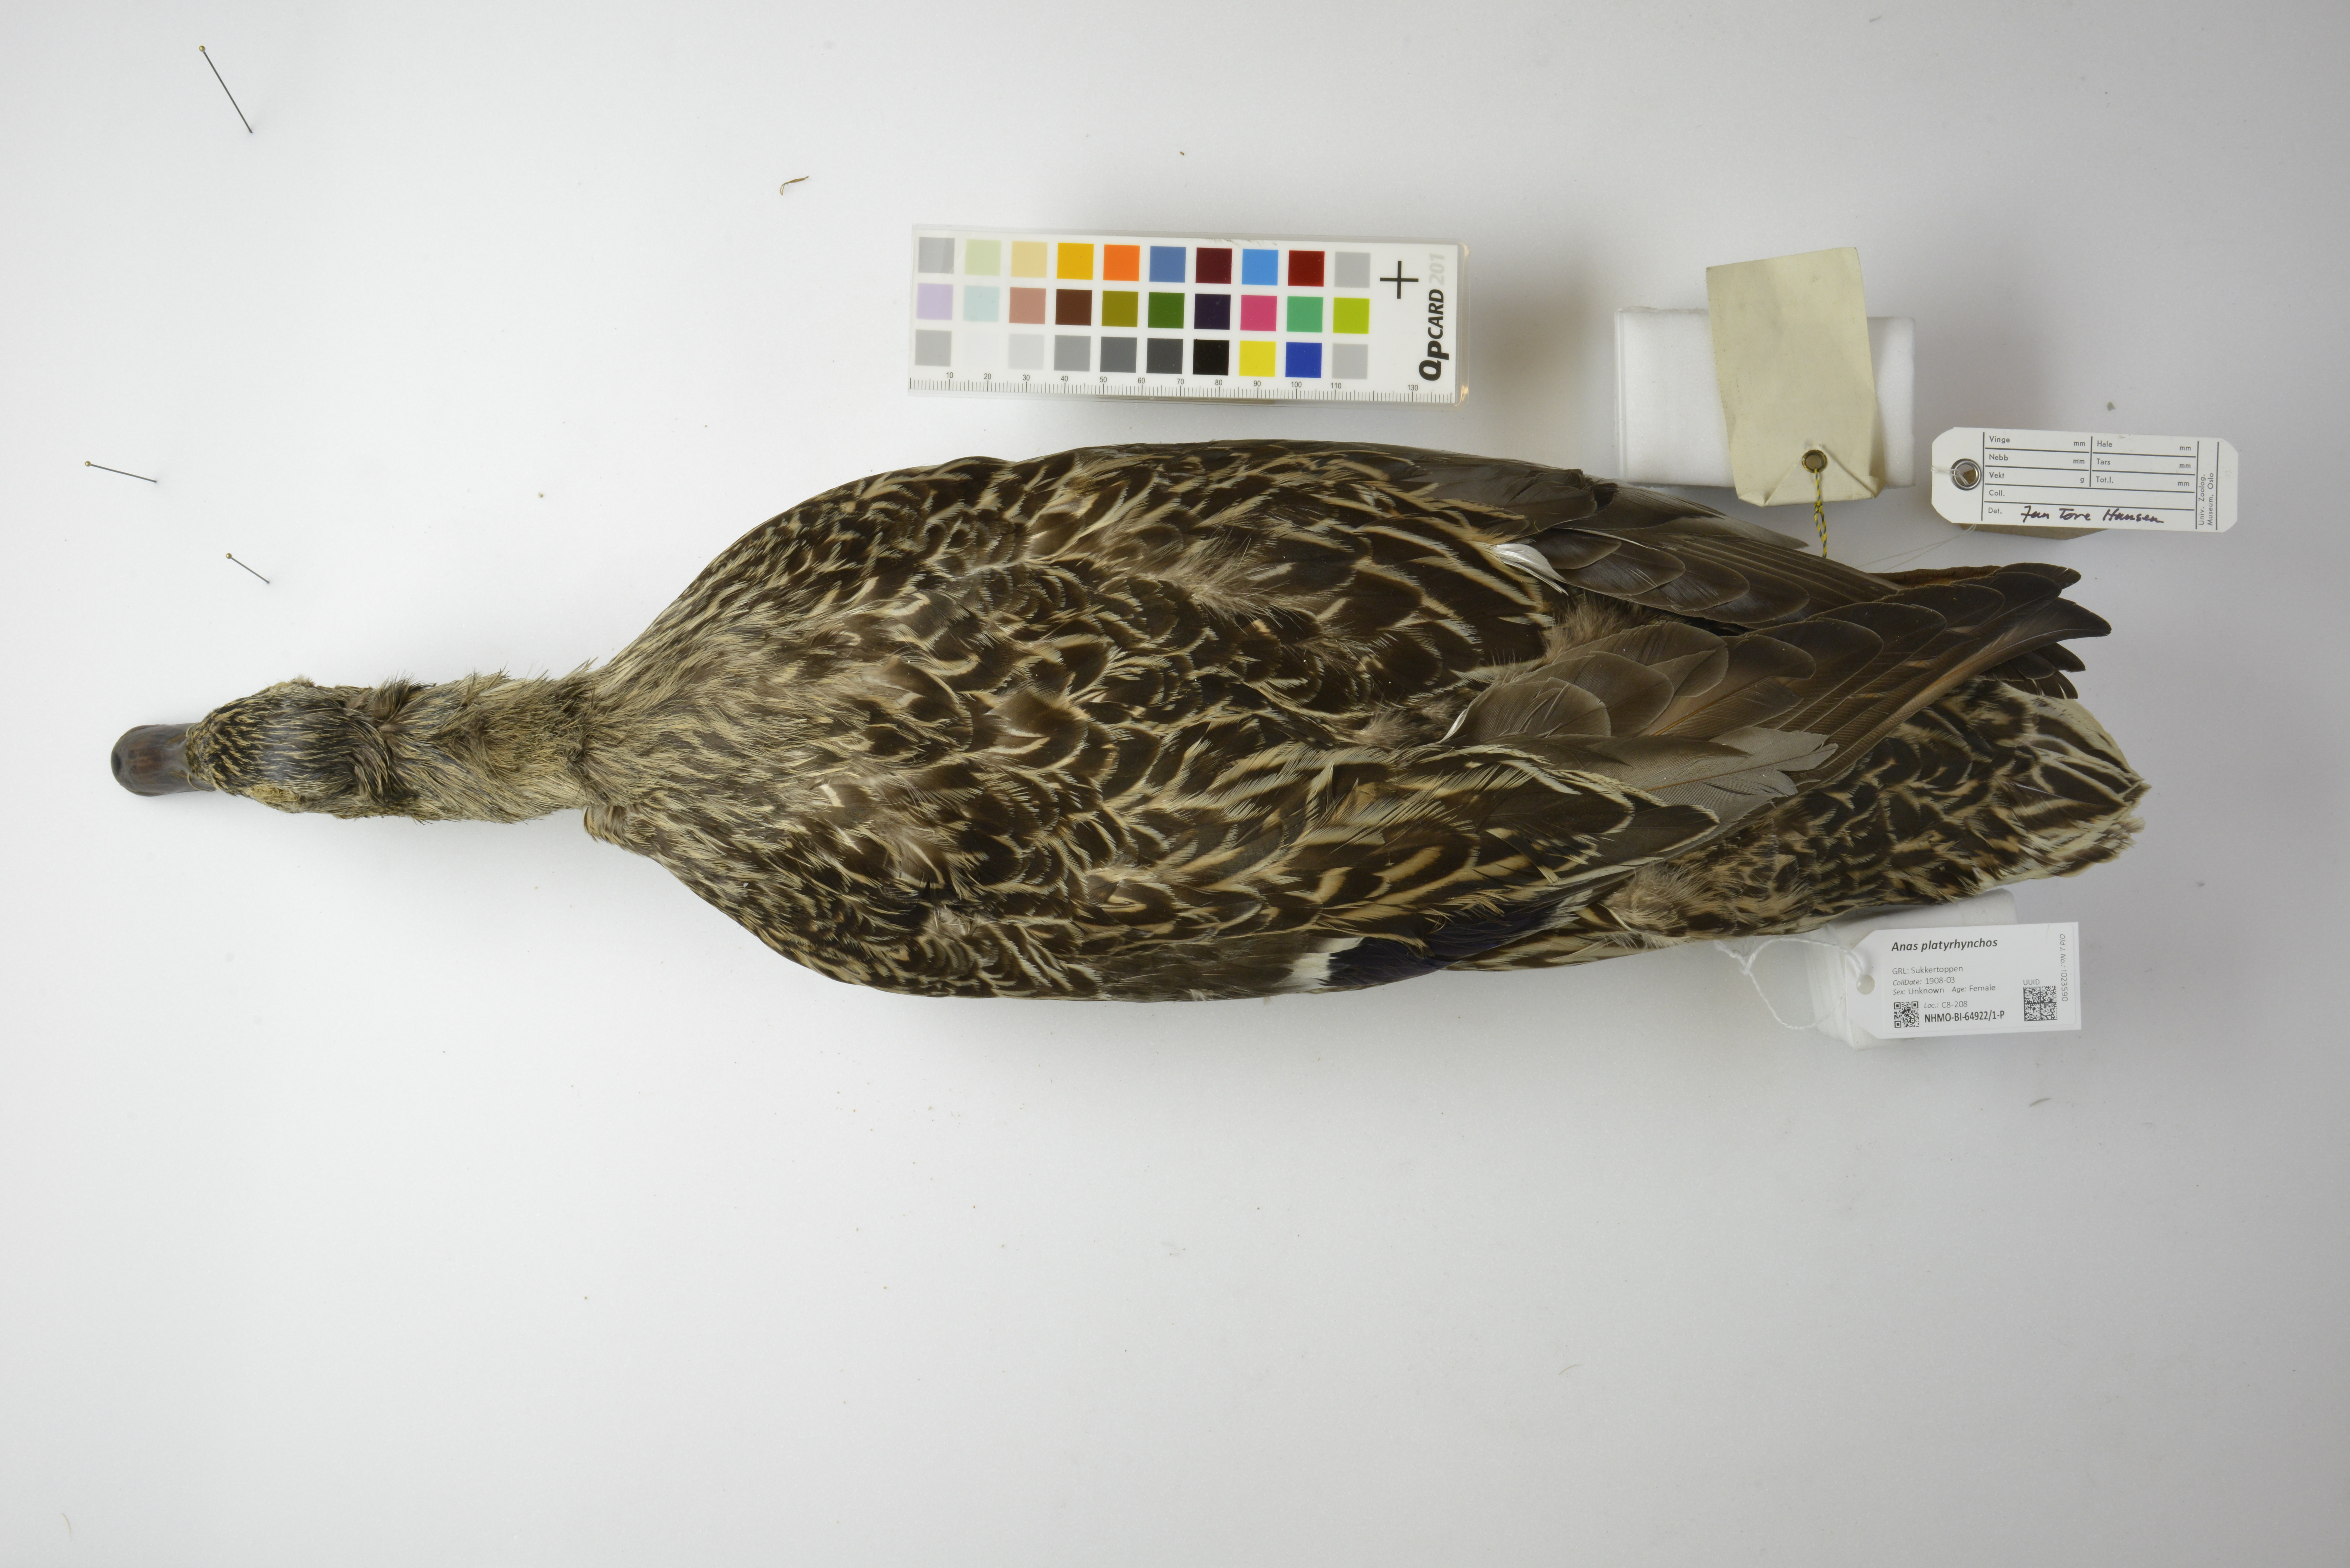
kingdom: Animalia
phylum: Chordata
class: Aves
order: Anseriformes
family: Anatidae
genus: Anas
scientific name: Anas platyrhynchos
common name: Mallard
